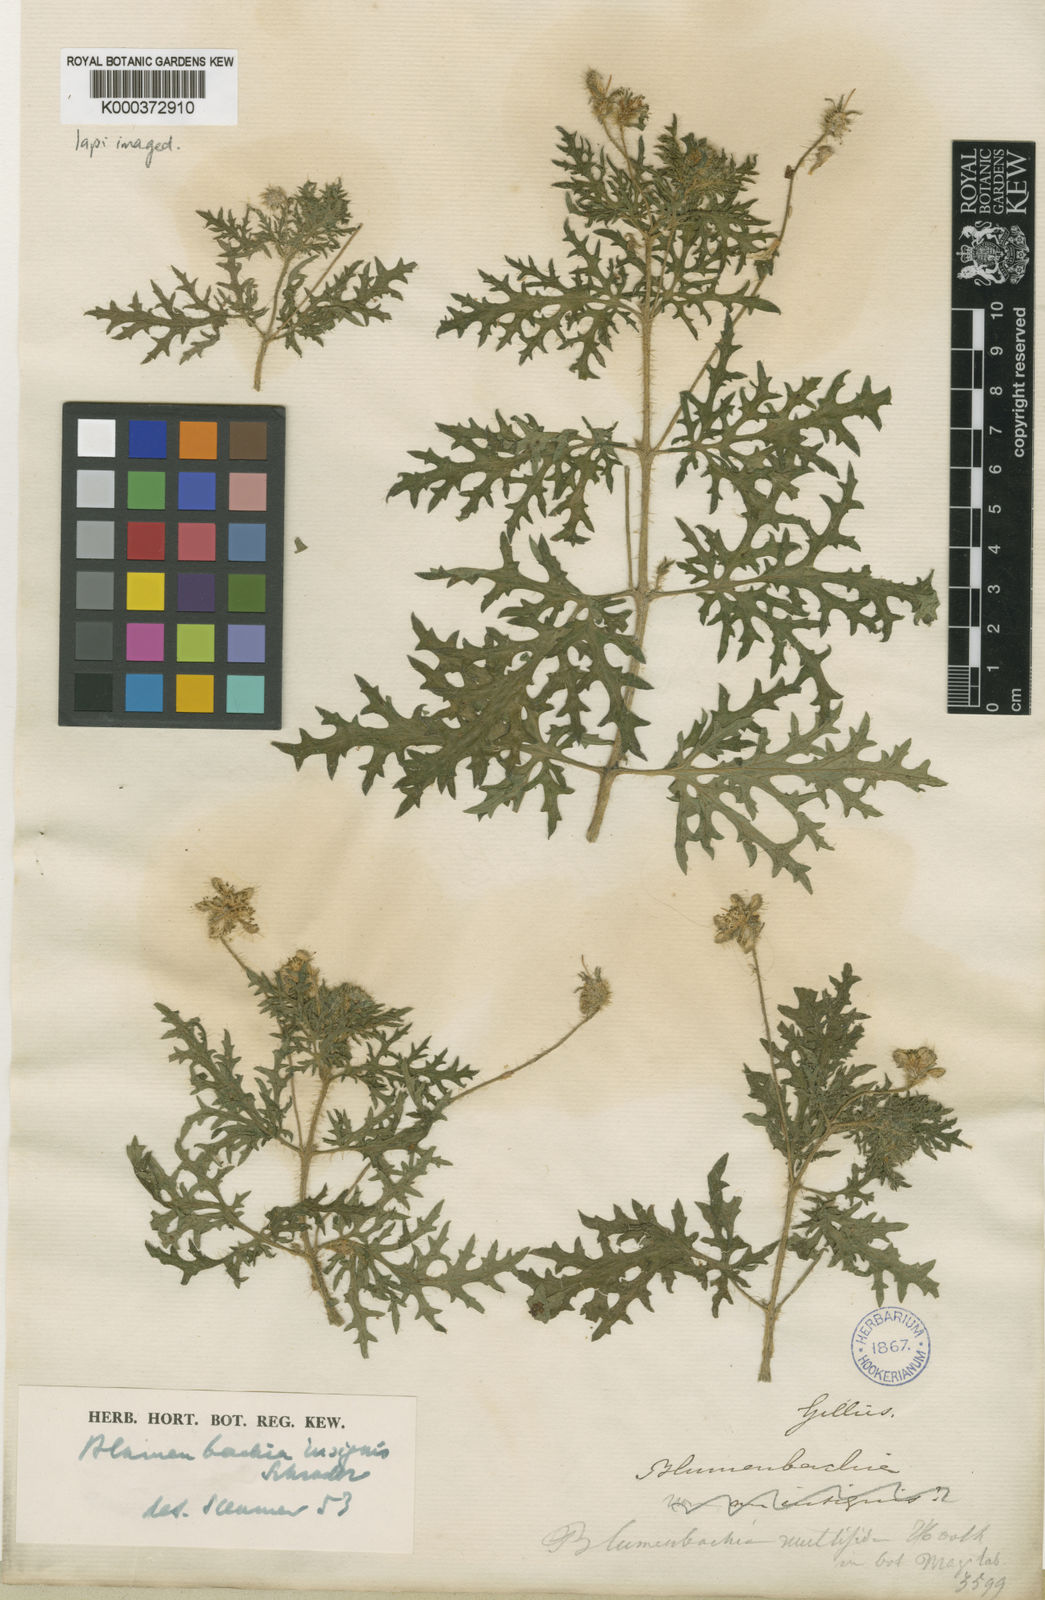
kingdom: Plantae
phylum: Tracheophyta
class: Magnoliopsida
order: Cornales
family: Loasaceae
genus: Blumenbachia
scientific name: Blumenbachia insignis
